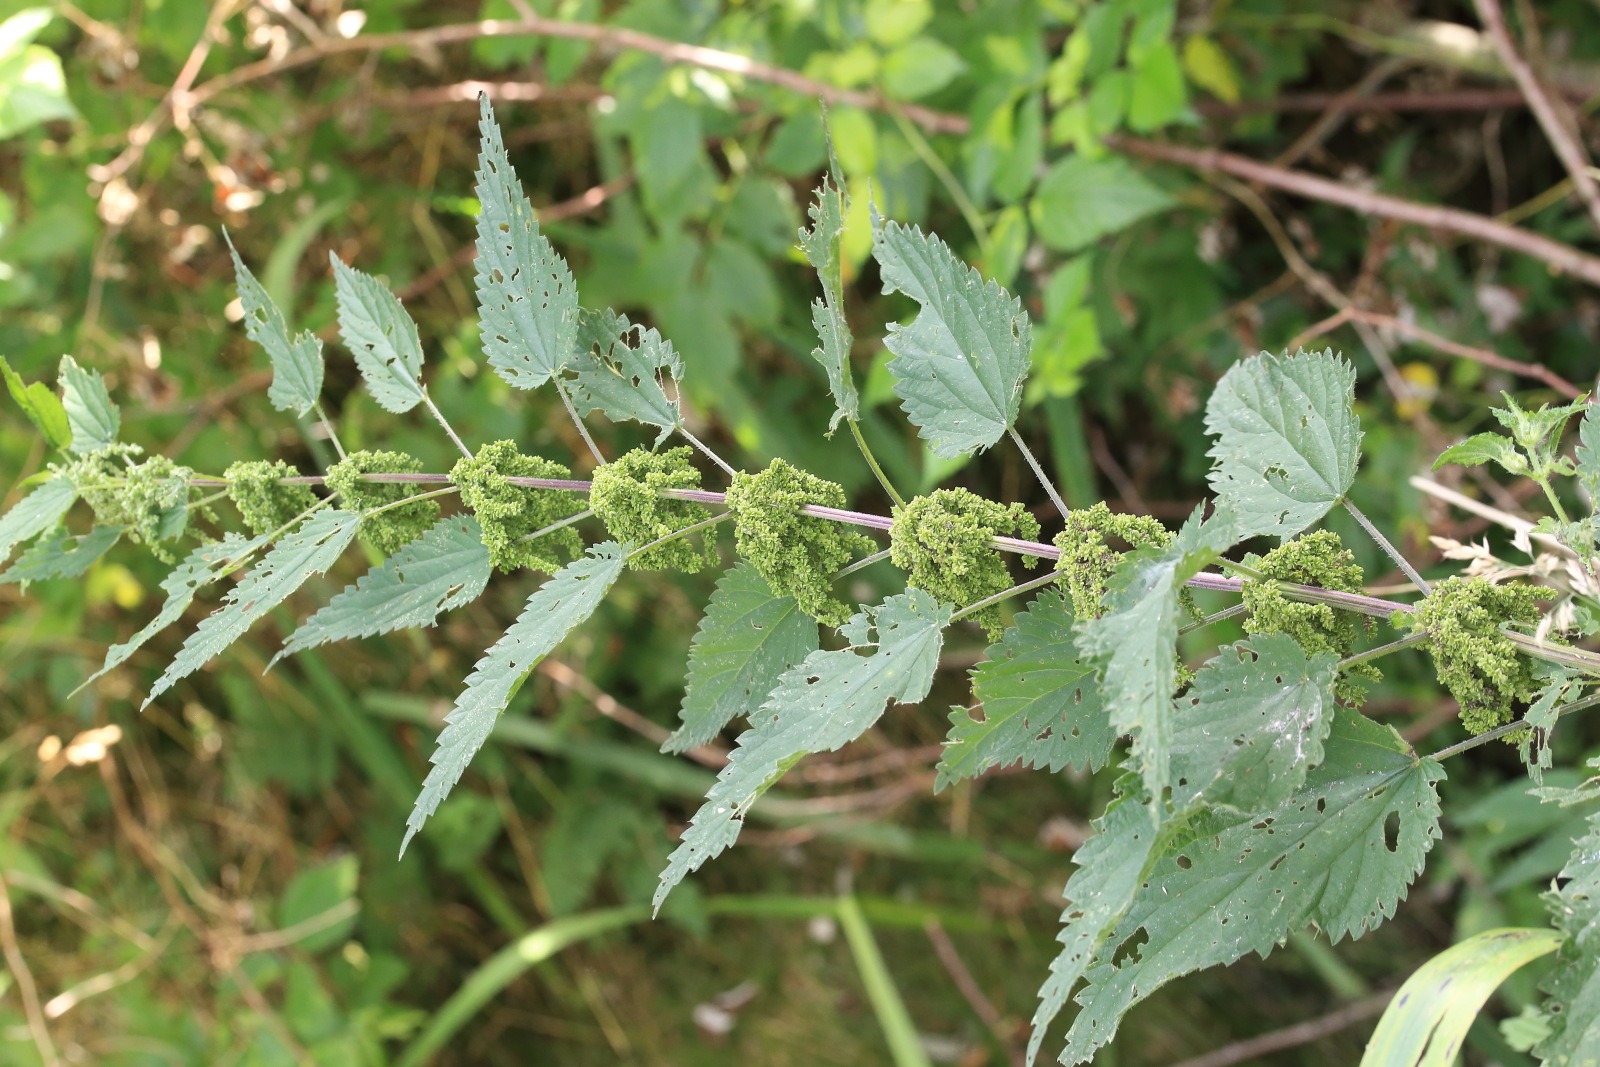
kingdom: Plantae
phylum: Tracheophyta
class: Magnoliopsida
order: Rosales
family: Urticaceae
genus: Urtica
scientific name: Urtica dioica
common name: Stor nælde
